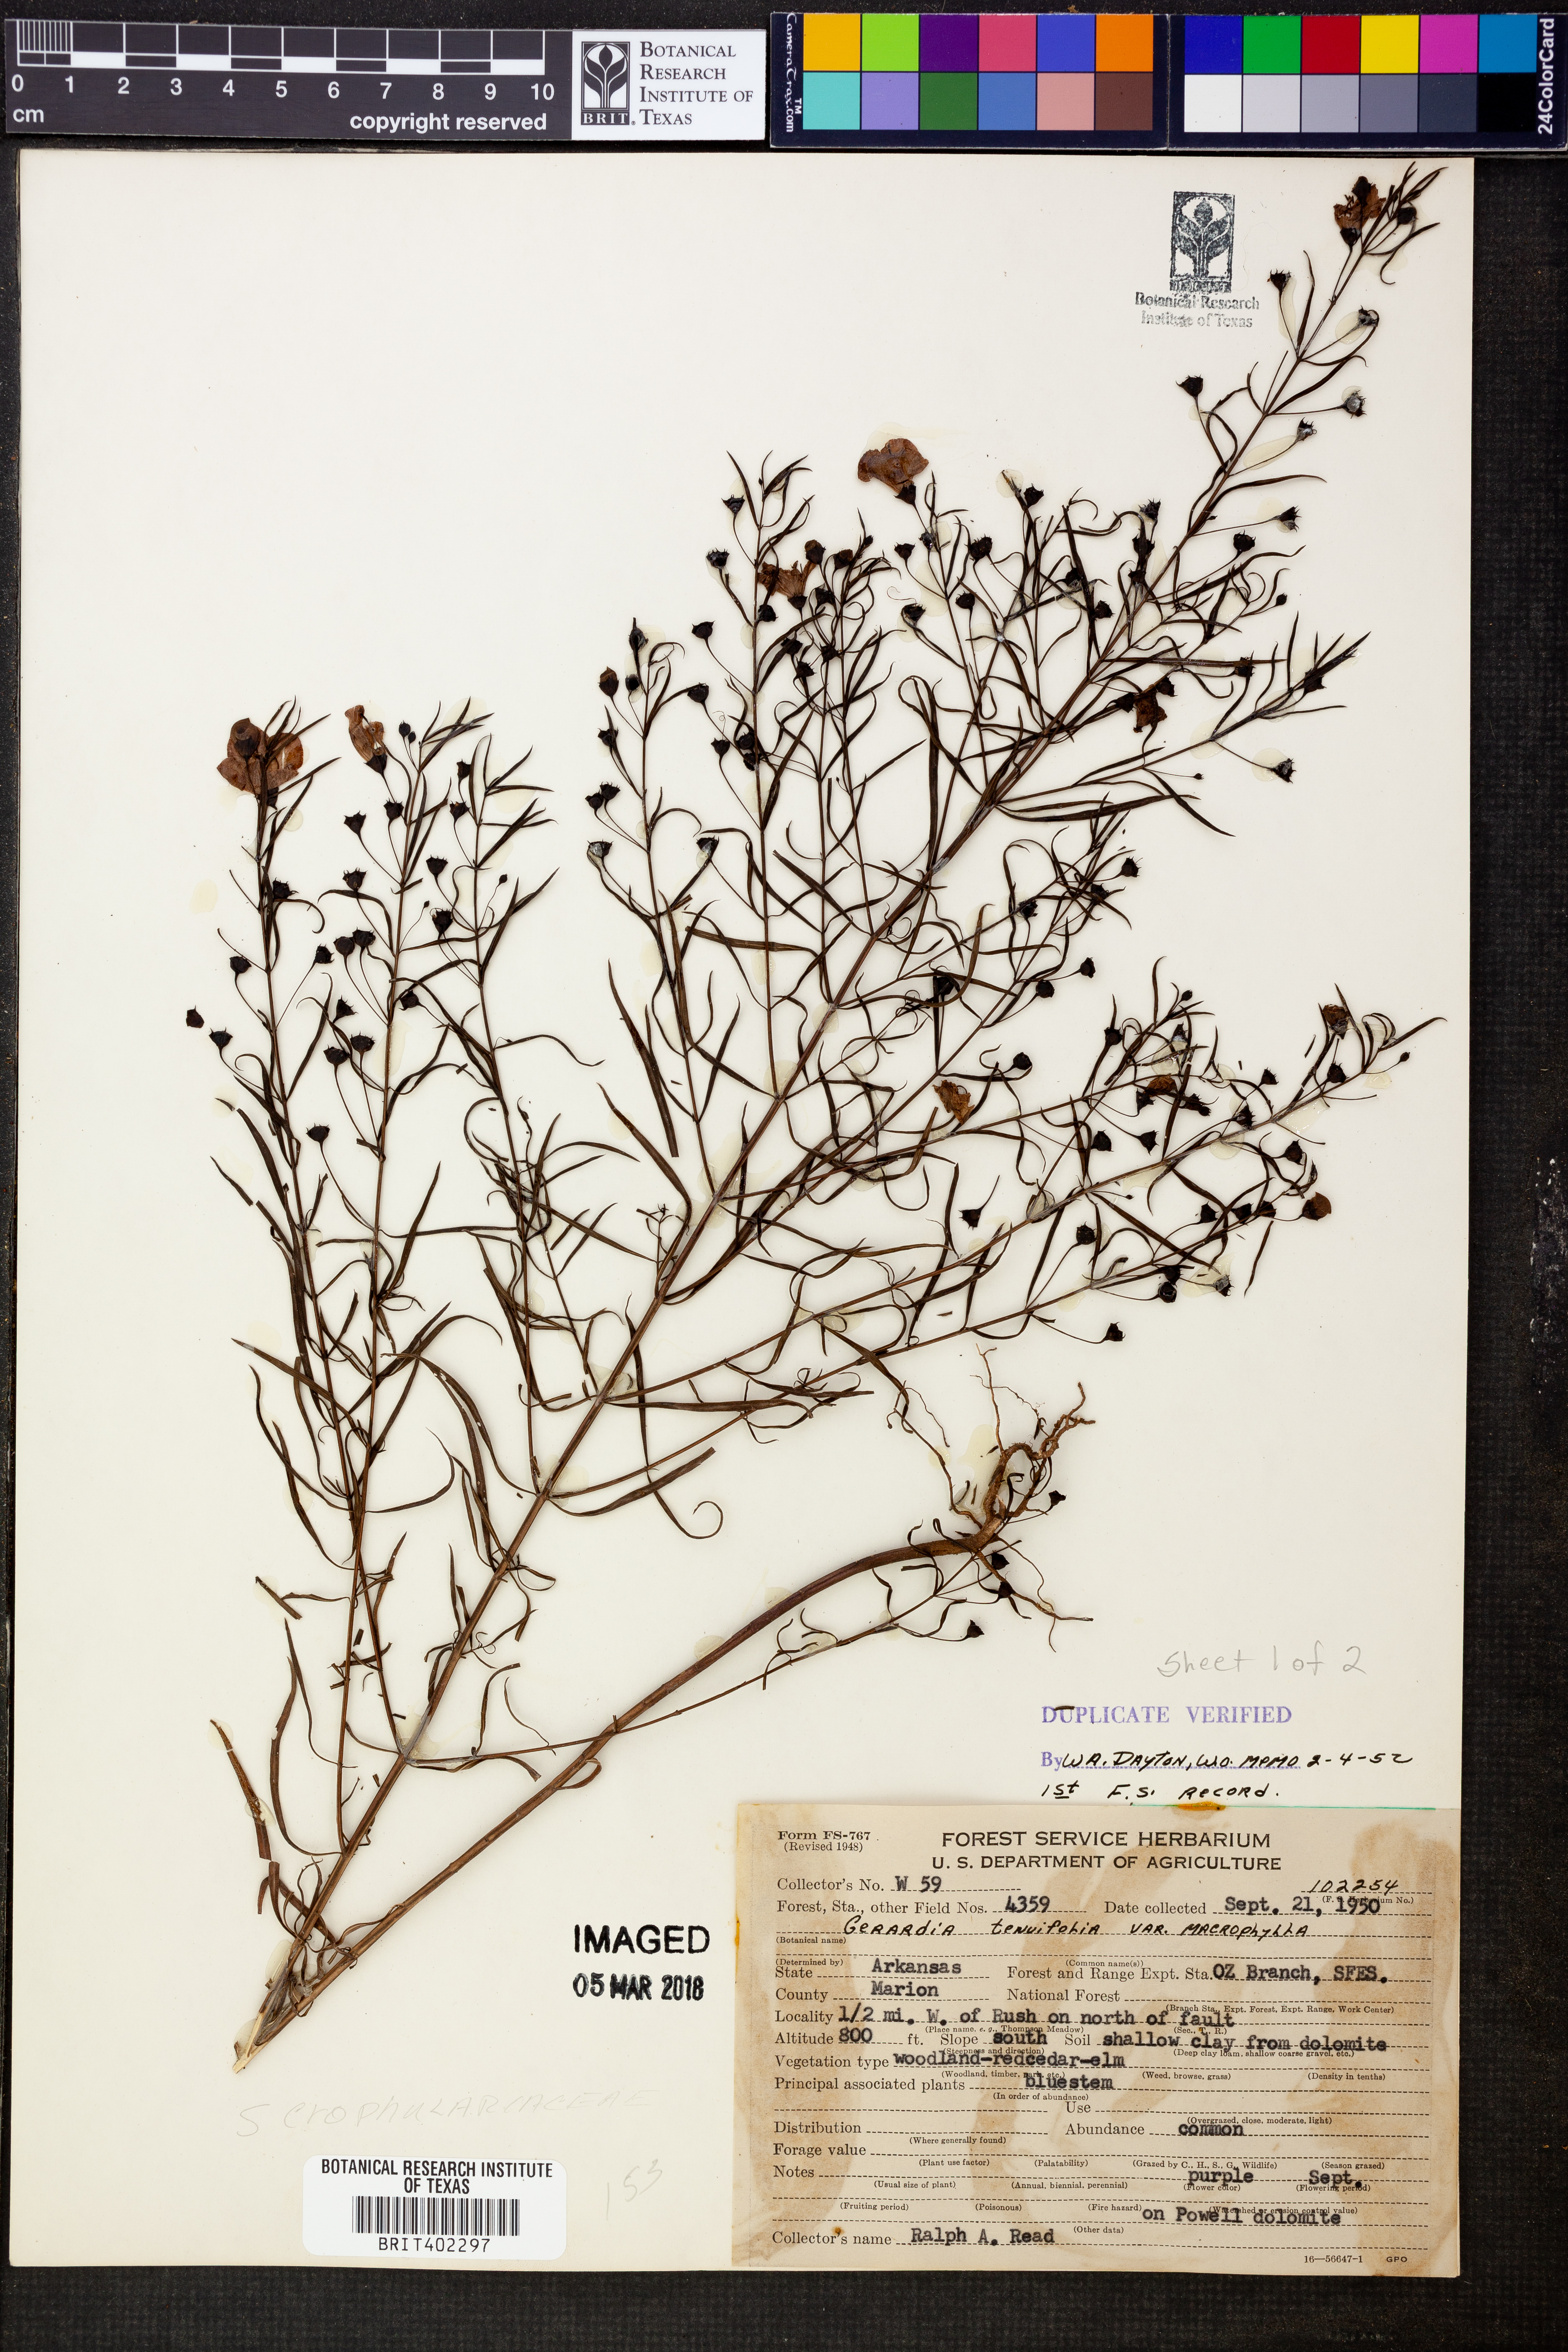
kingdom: Plantae
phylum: Tracheophyta
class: Magnoliopsida
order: Lamiales
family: Orobanchaceae
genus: Agalinis
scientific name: Agalinis tenuifolia
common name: Slender agalinis
